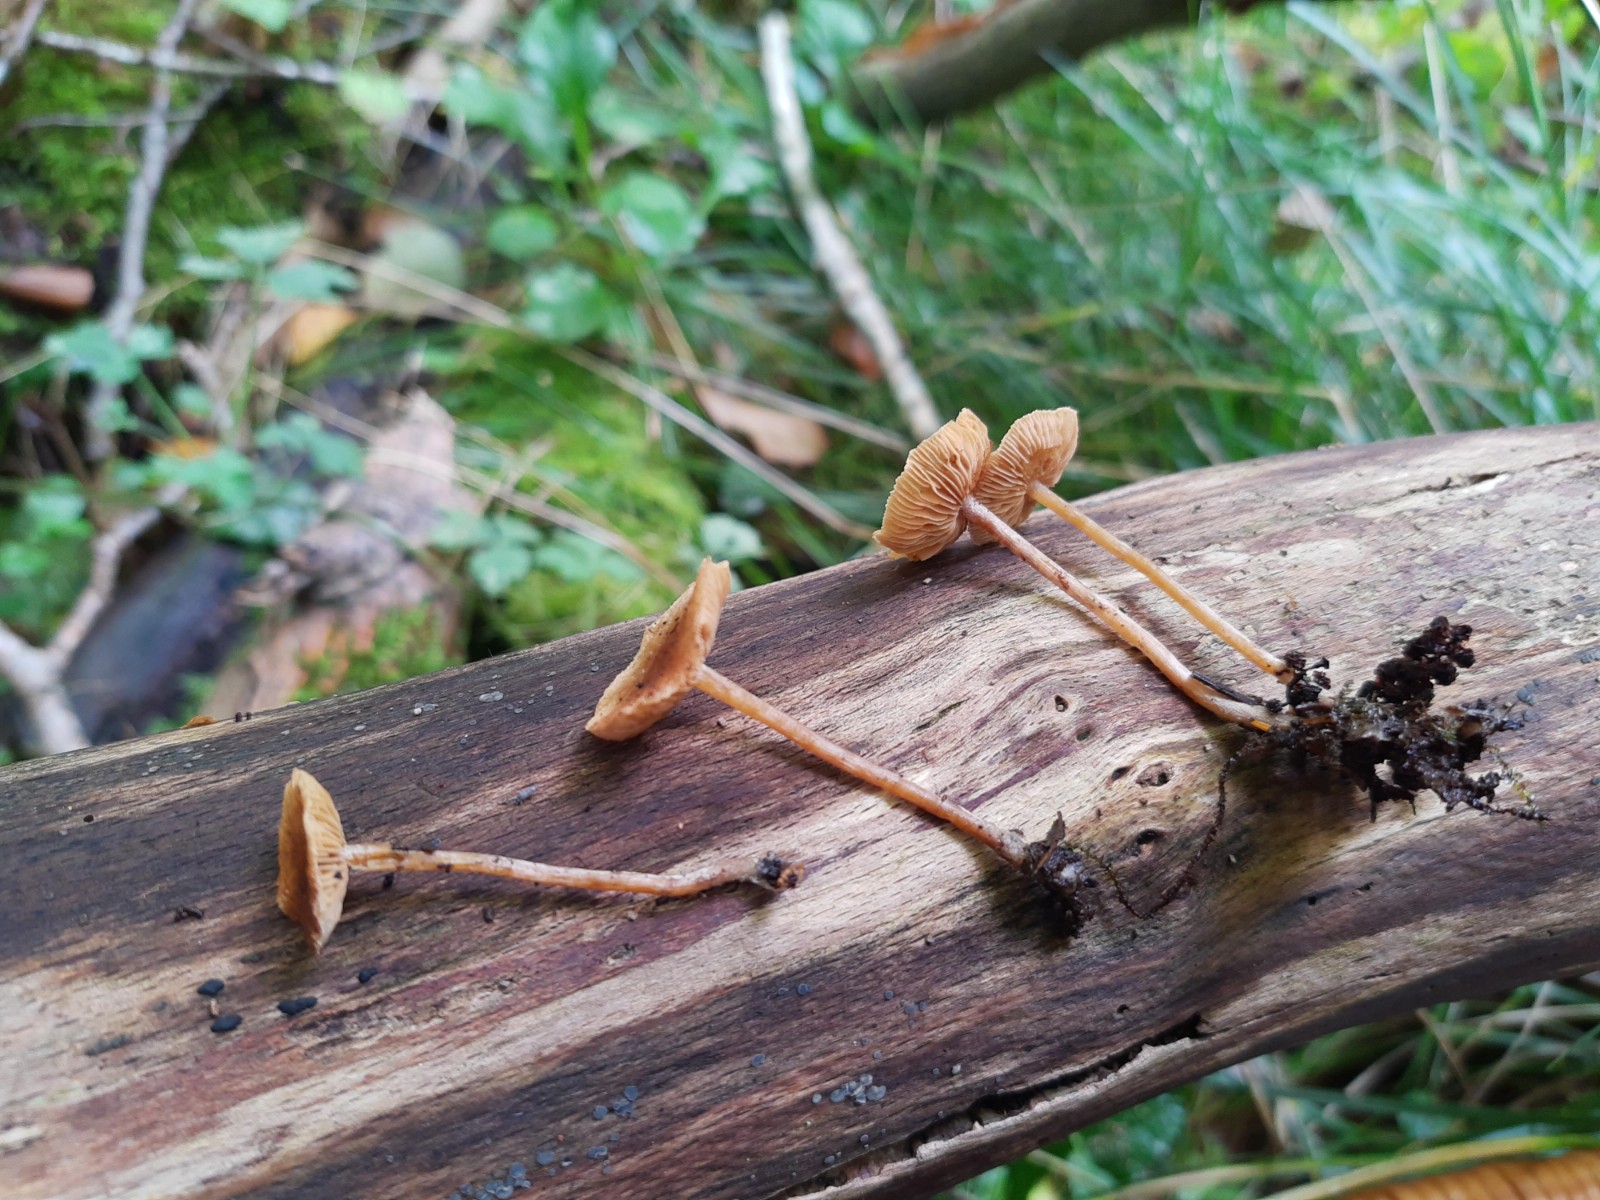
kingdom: Fungi
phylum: Basidiomycota
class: Agaricomycetes
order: Agaricales
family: Hymenogastraceae
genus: Naucoria
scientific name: Naucoria escharioides
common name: lys elle-knaphat
